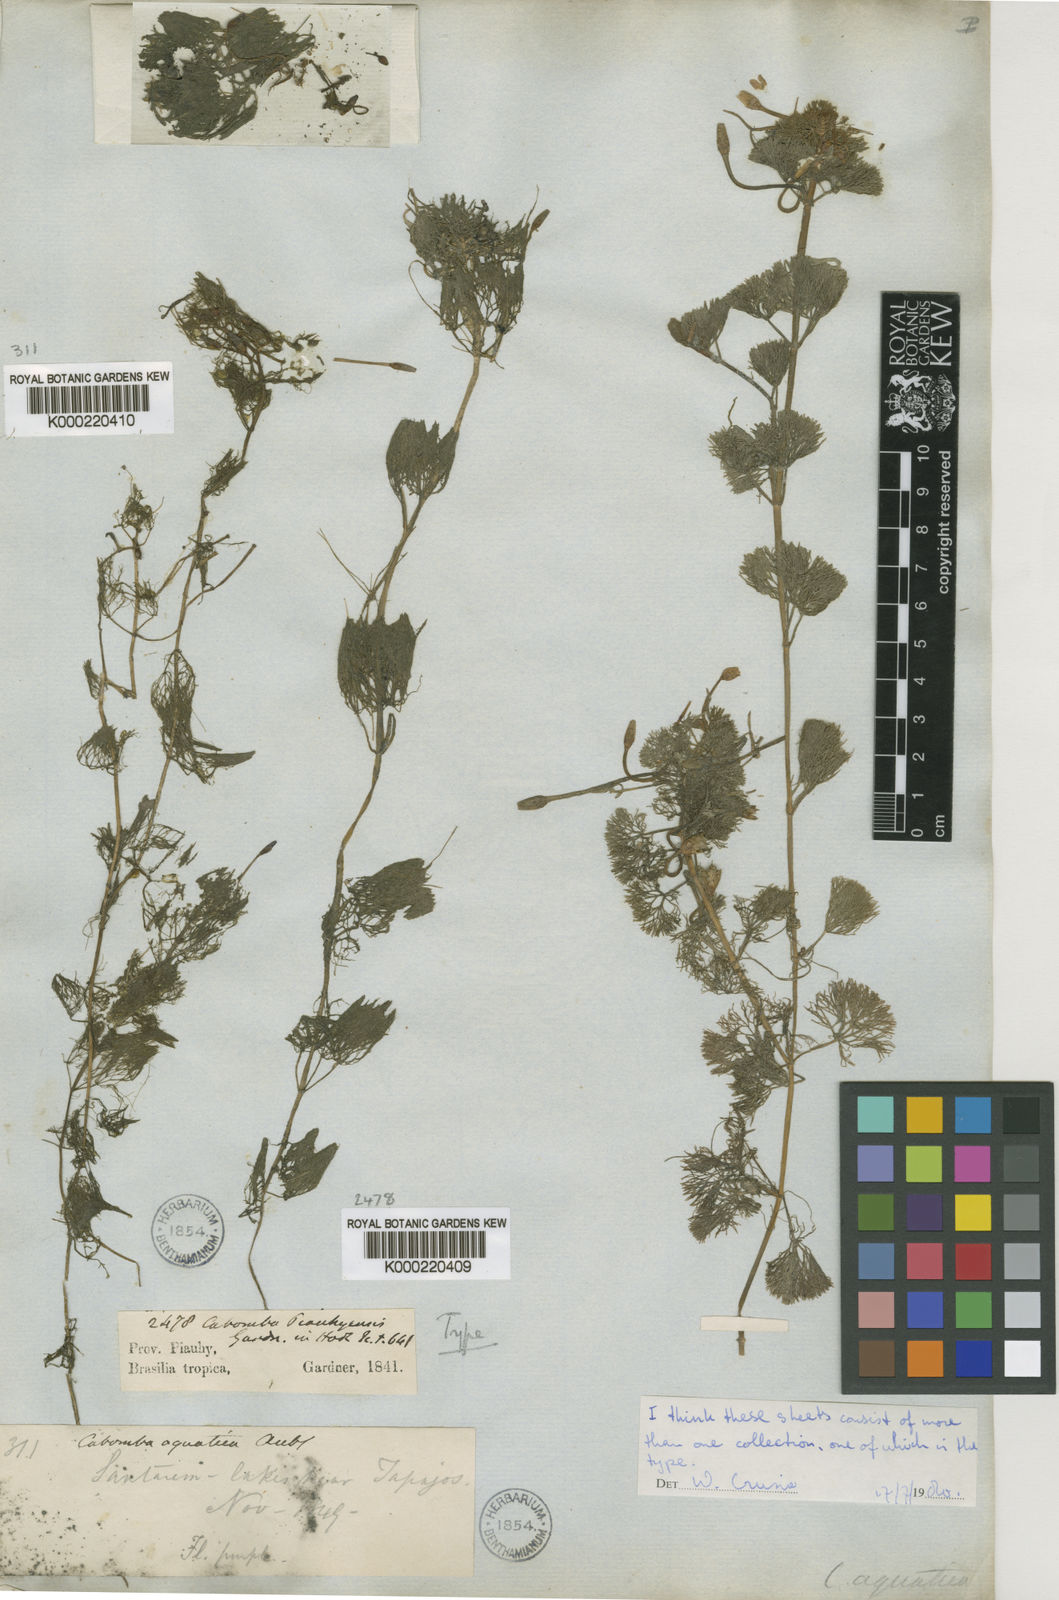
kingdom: Plantae
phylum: Tracheophyta
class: Magnoliopsida
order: Nymphaeales
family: Cabombaceae
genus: Cabomba
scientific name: Cabomba aquatica
